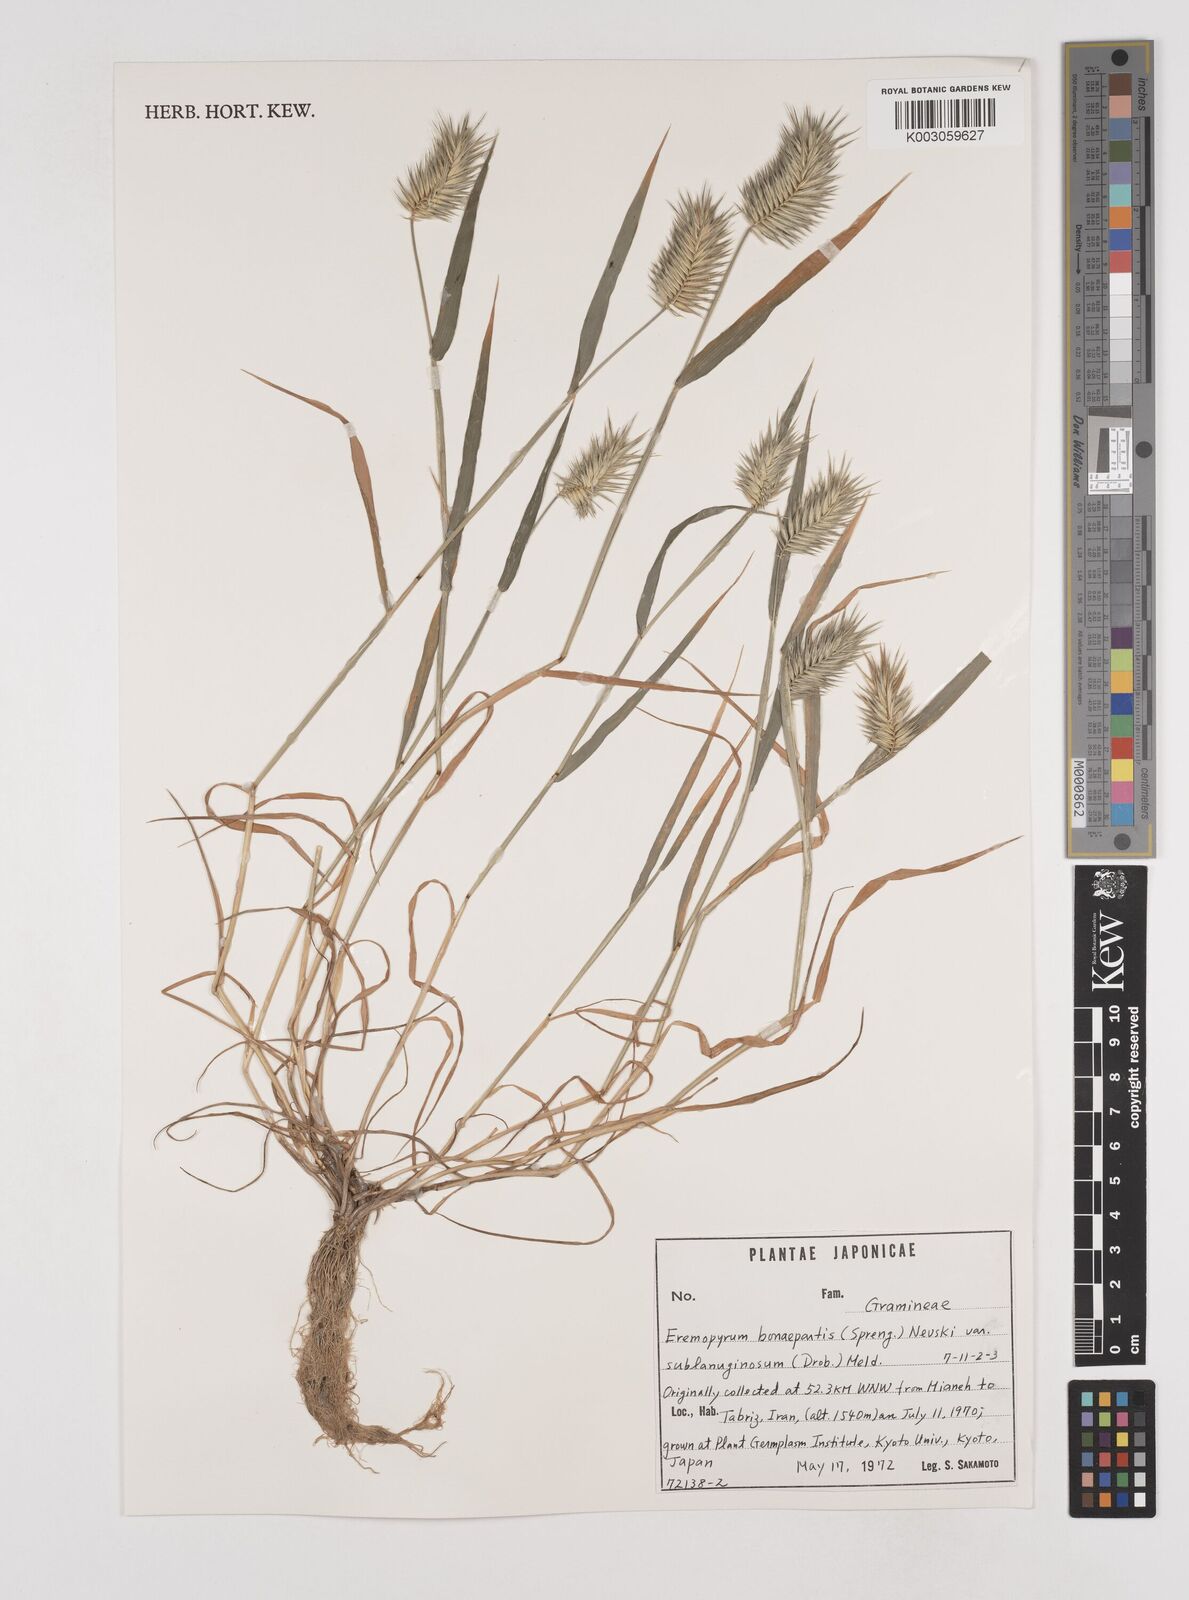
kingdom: Plantae
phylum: Tracheophyta
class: Liliopsida
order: Poales
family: Poaceae
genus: Eremopyrum
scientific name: Eremopyrum bonaepartis
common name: Tapertip false wheatgrass
